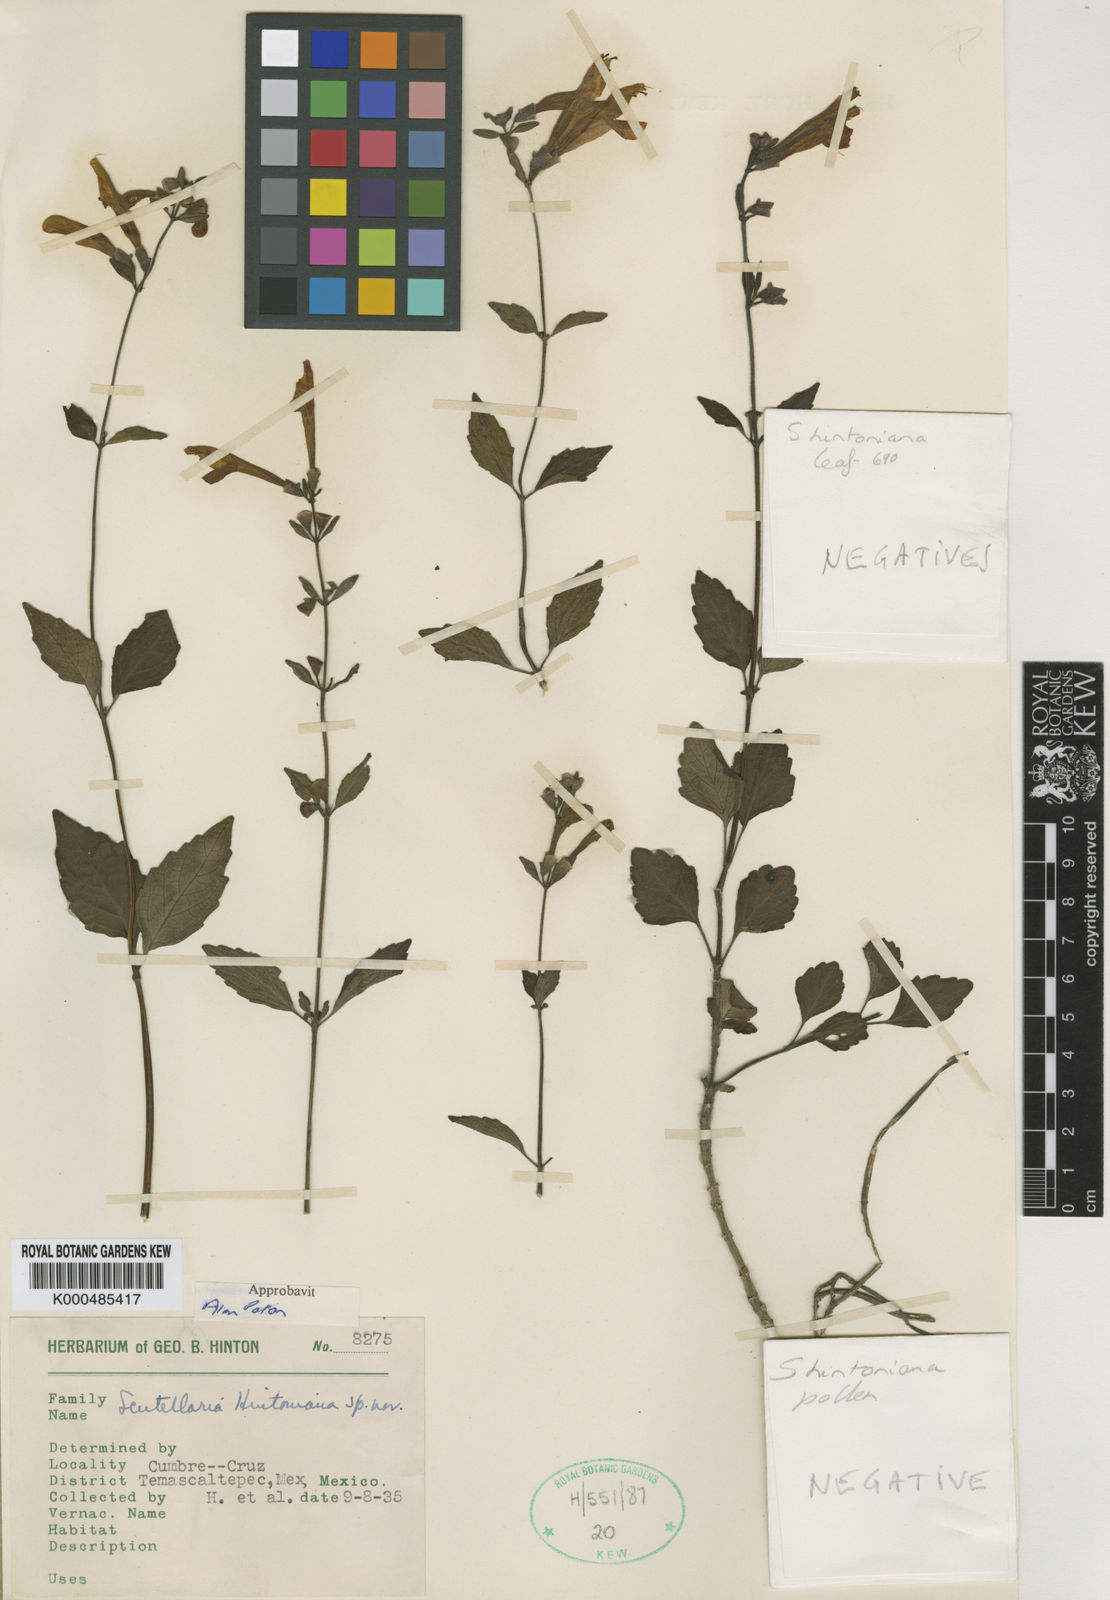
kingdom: Plantae
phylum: Tracheophyta
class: Magnoliopsida
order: Lamiales
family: Lamiaceae
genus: Scutellaria
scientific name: Scutellaria hintoniana
